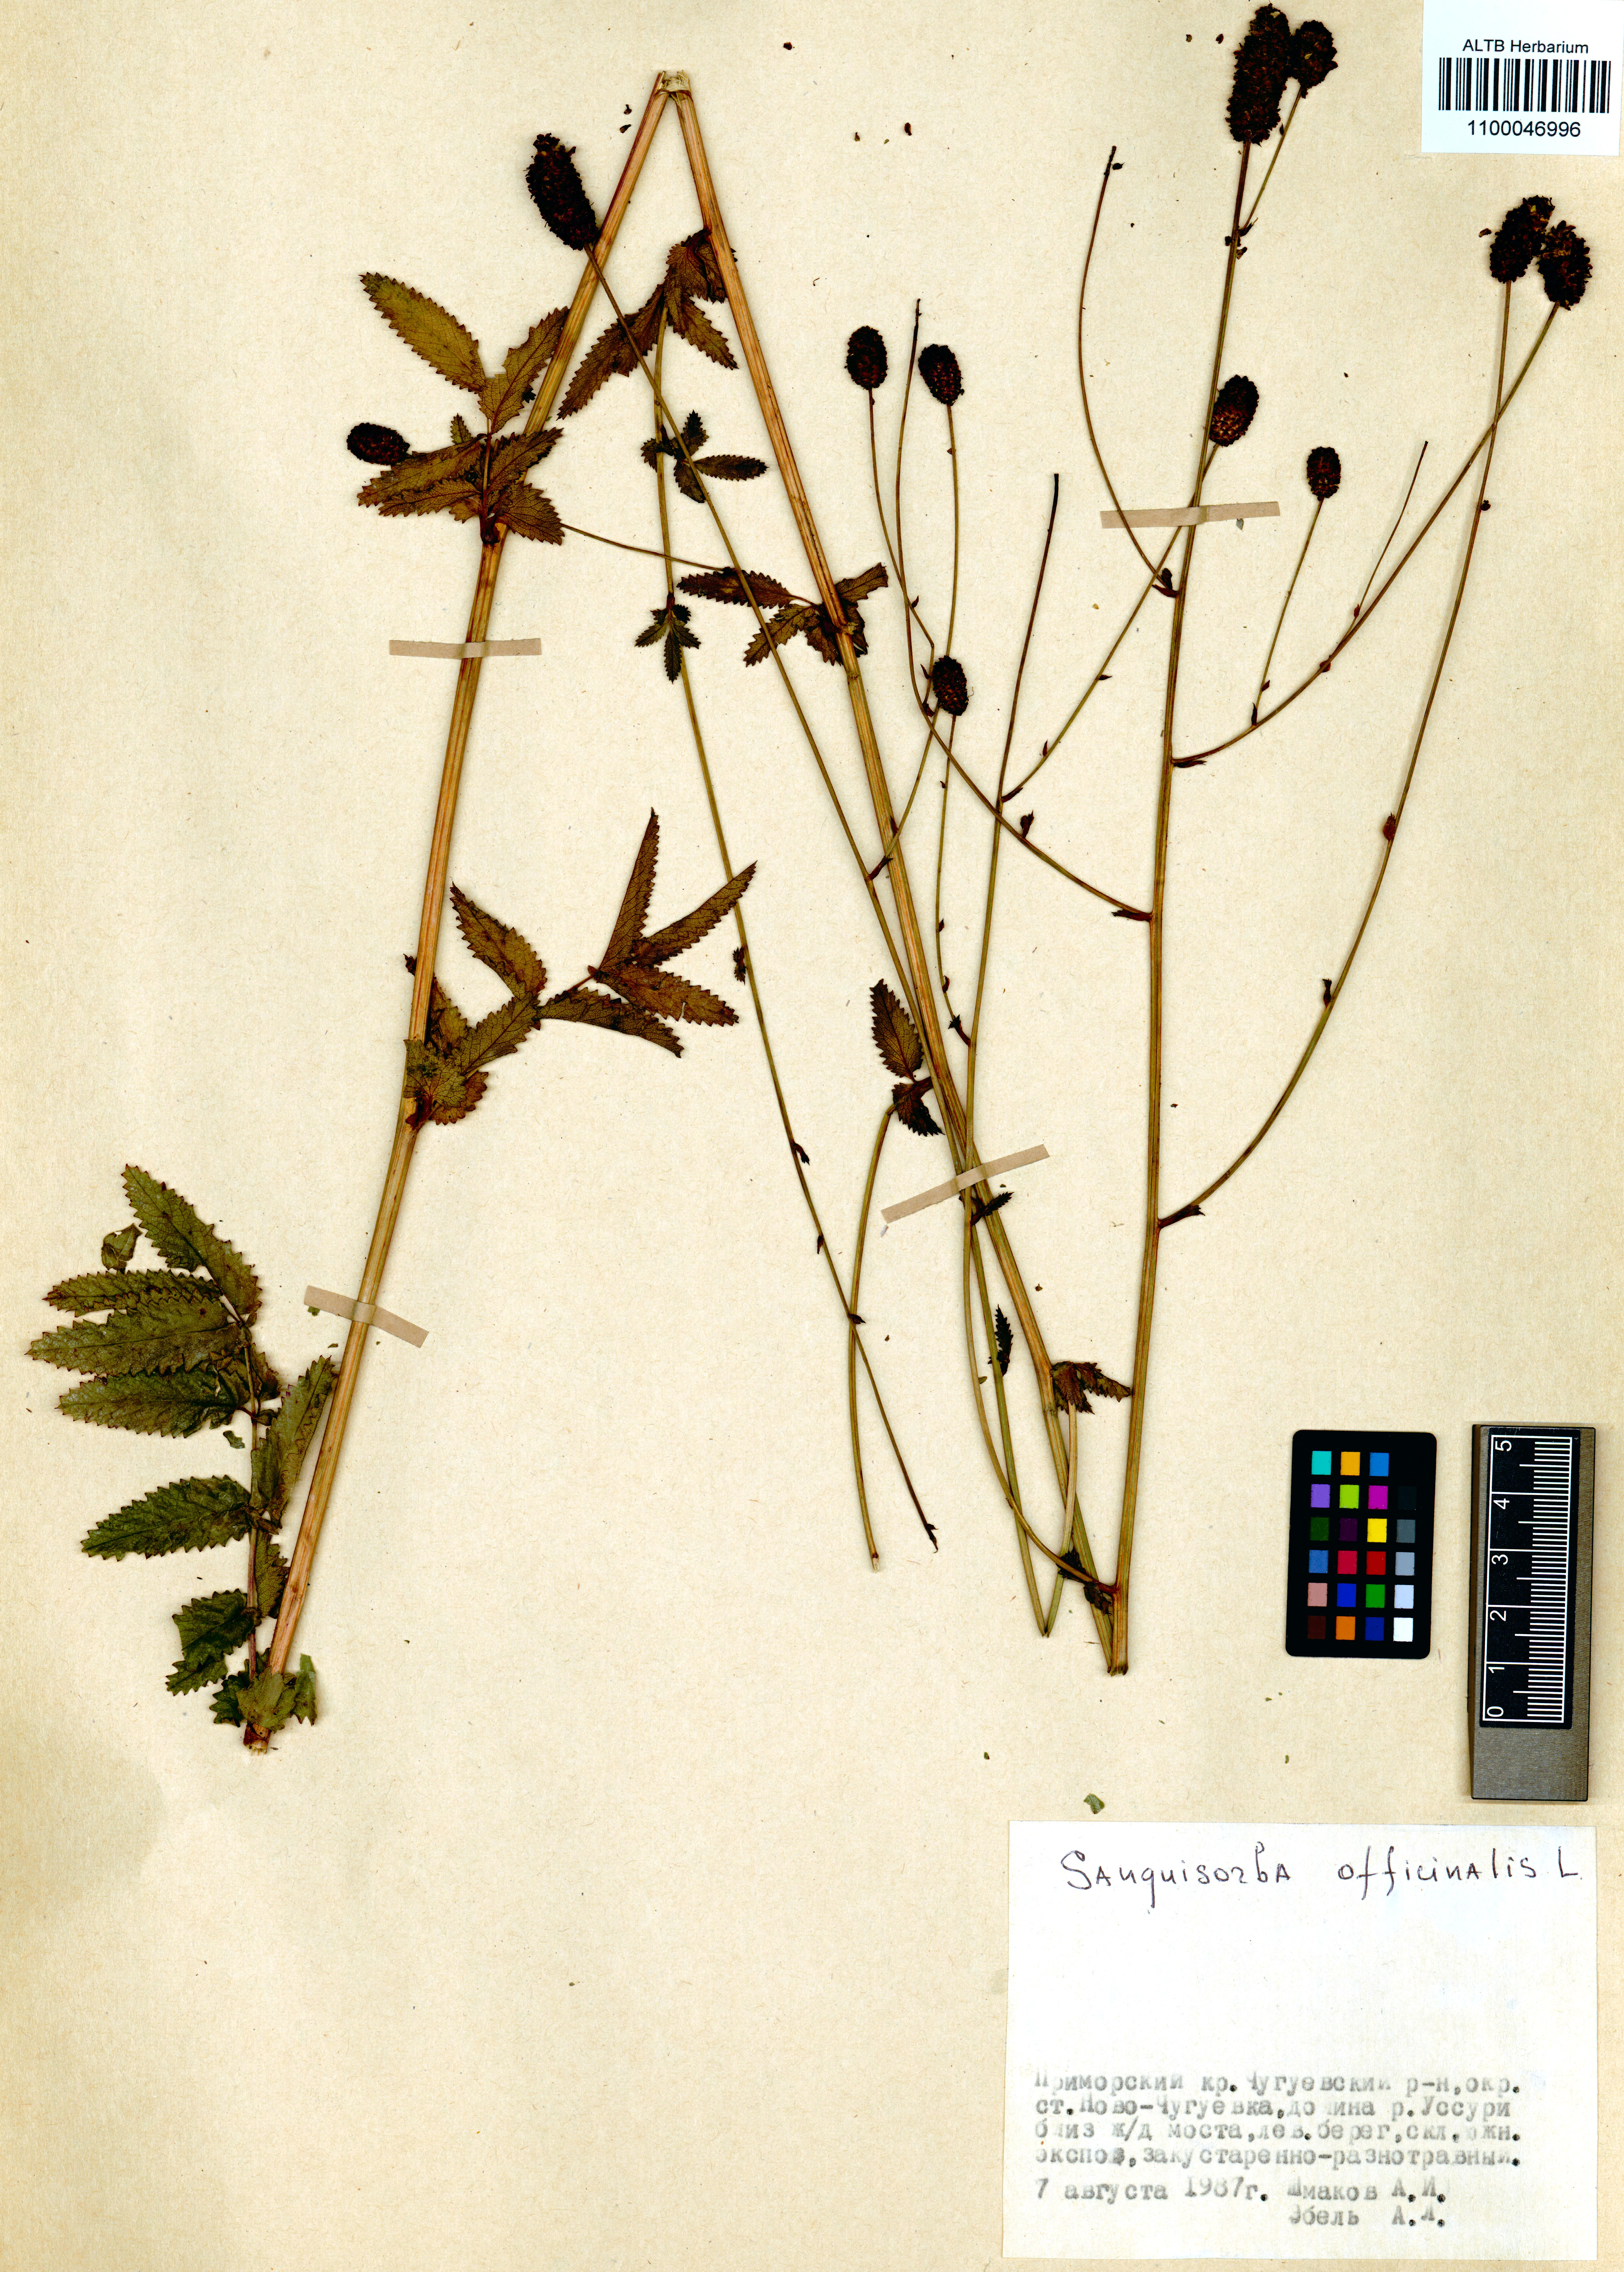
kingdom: Plantae
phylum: Tracheophyta
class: Magnoliopsida
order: Rosales
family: Rosaceae
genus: Sanguisorba
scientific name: Sanguisorba officinalis
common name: Great burnet
